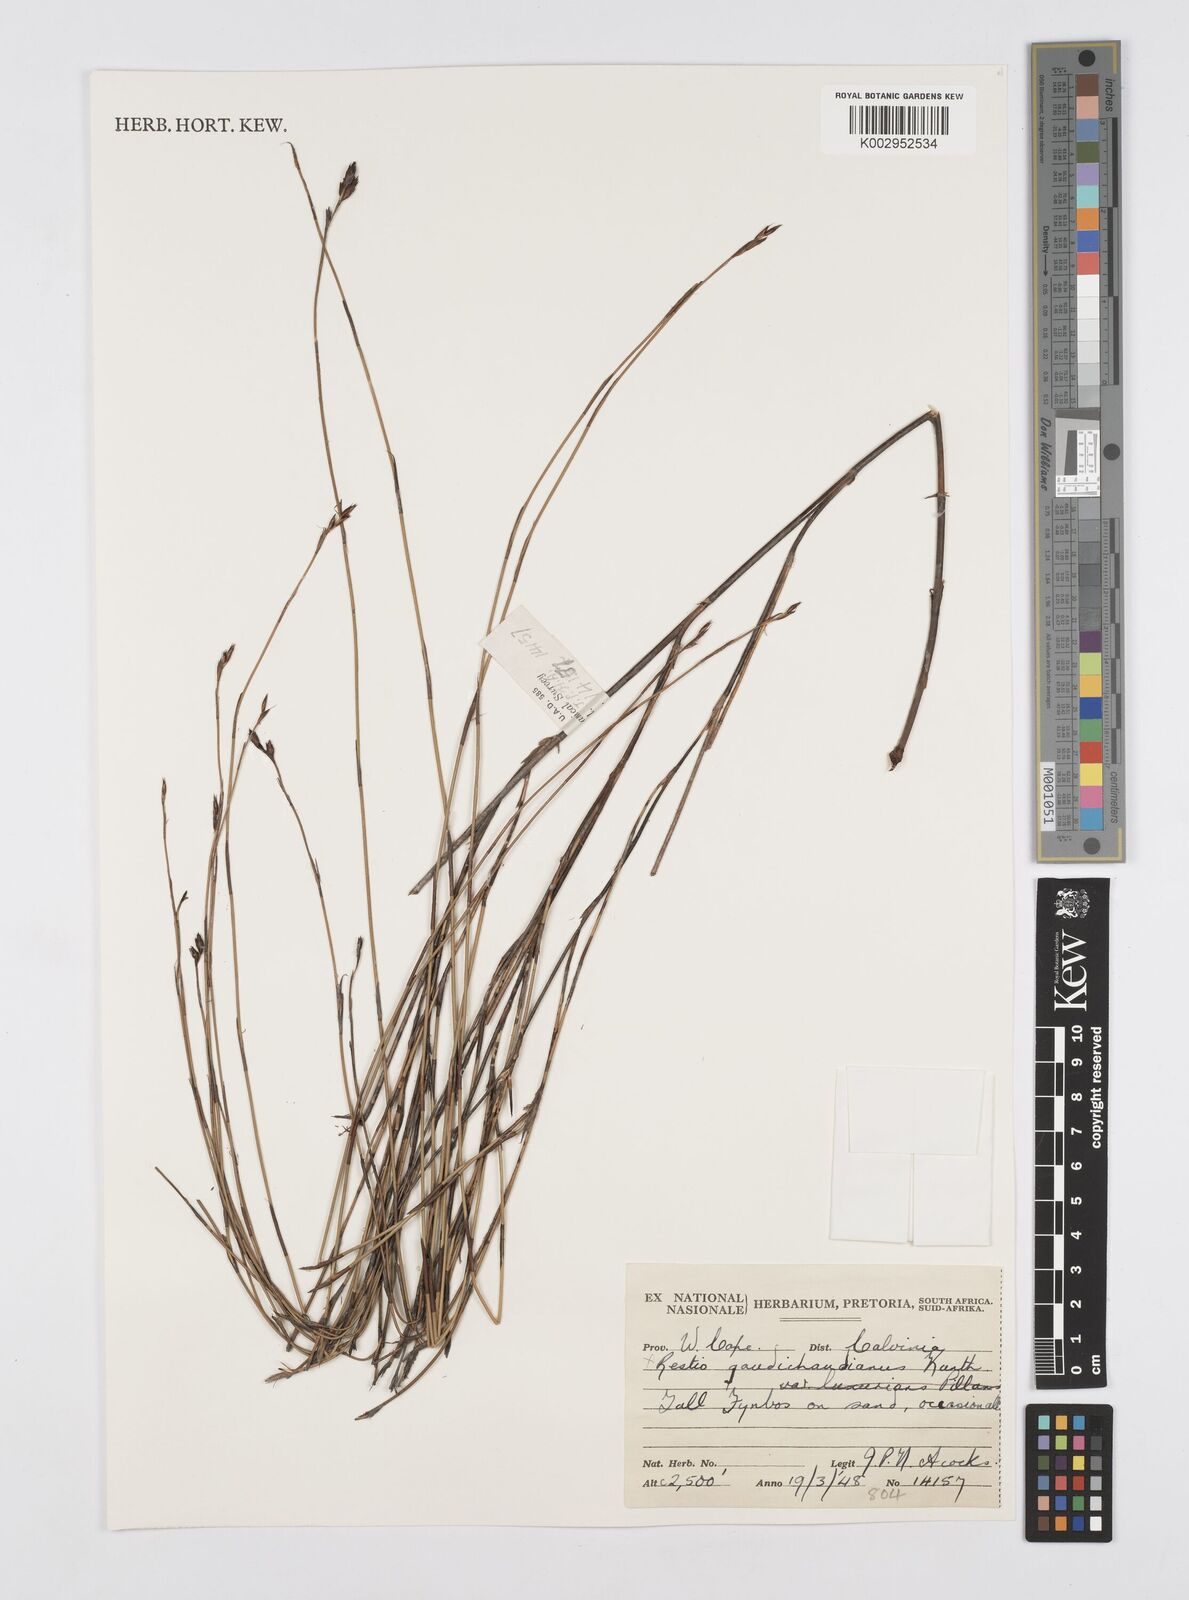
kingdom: Plantae
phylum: Tracheophyta
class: Liliopsida
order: Poales
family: Restionaceae
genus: Restio
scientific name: Restio gaudichaudianus
